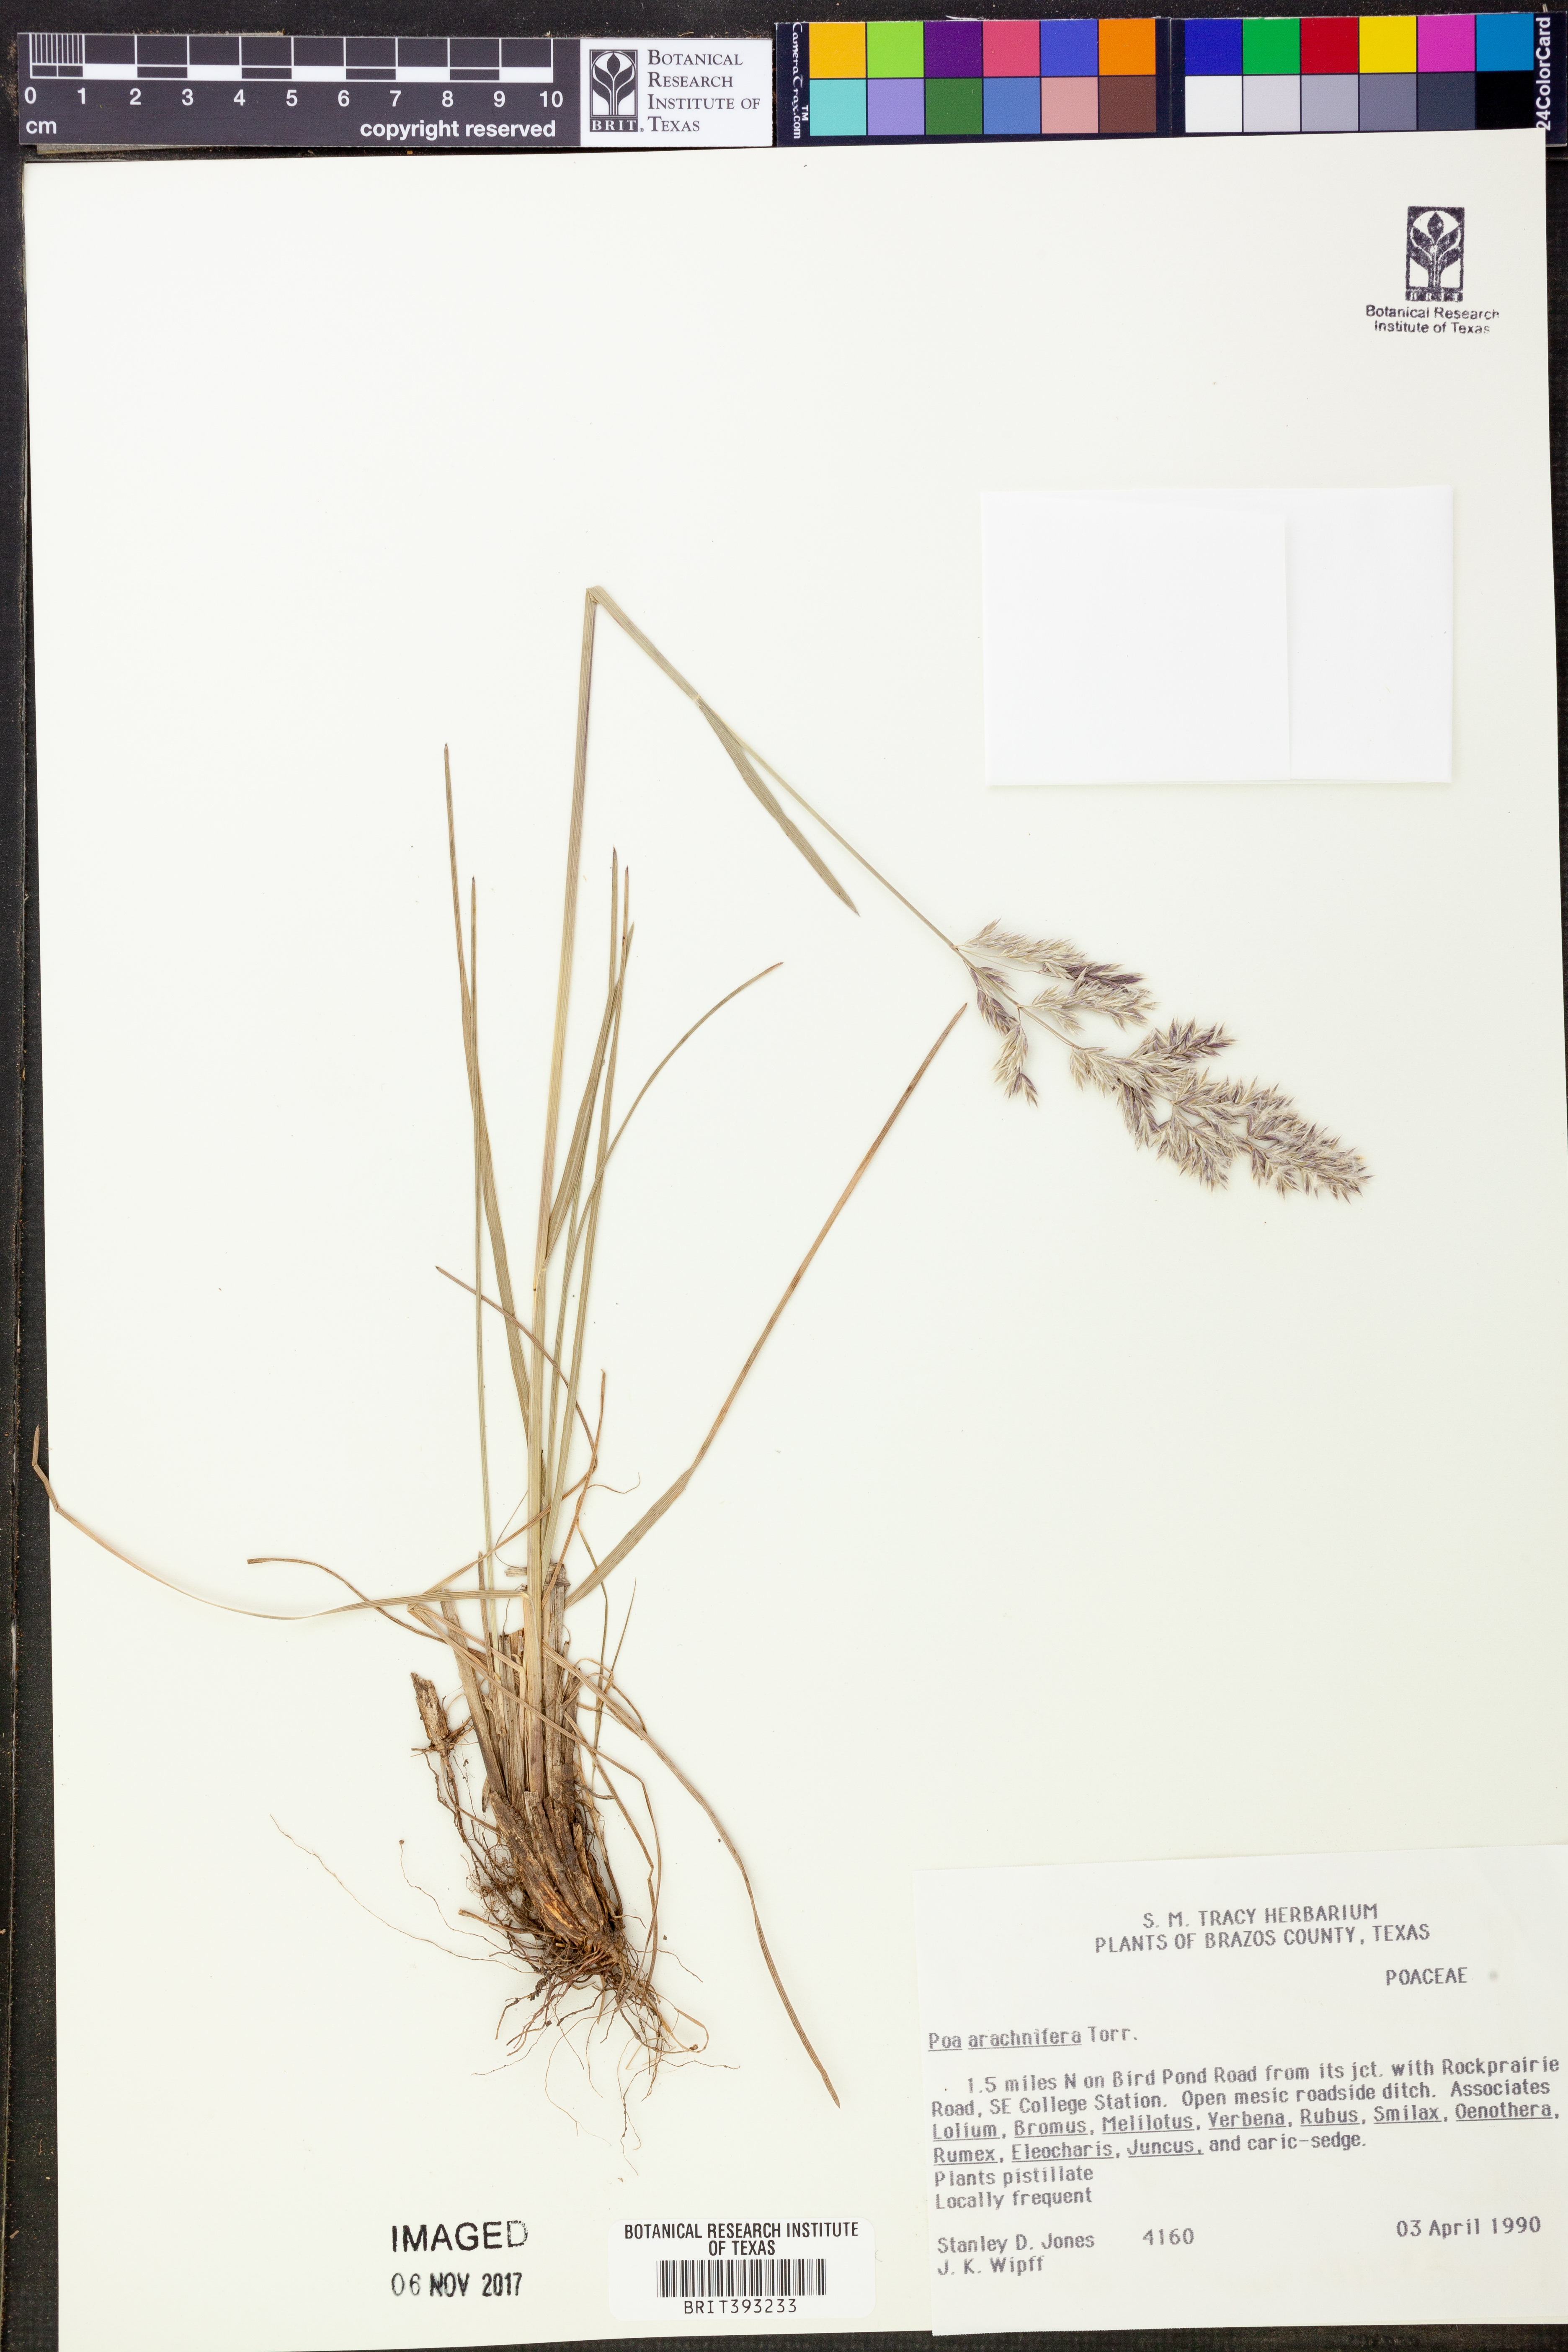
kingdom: Plantae
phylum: Tracheophyta
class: Liliopsida
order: Poales
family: Poaceae
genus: Poa
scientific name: Poa arachnifera
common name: Texas bluegrass
